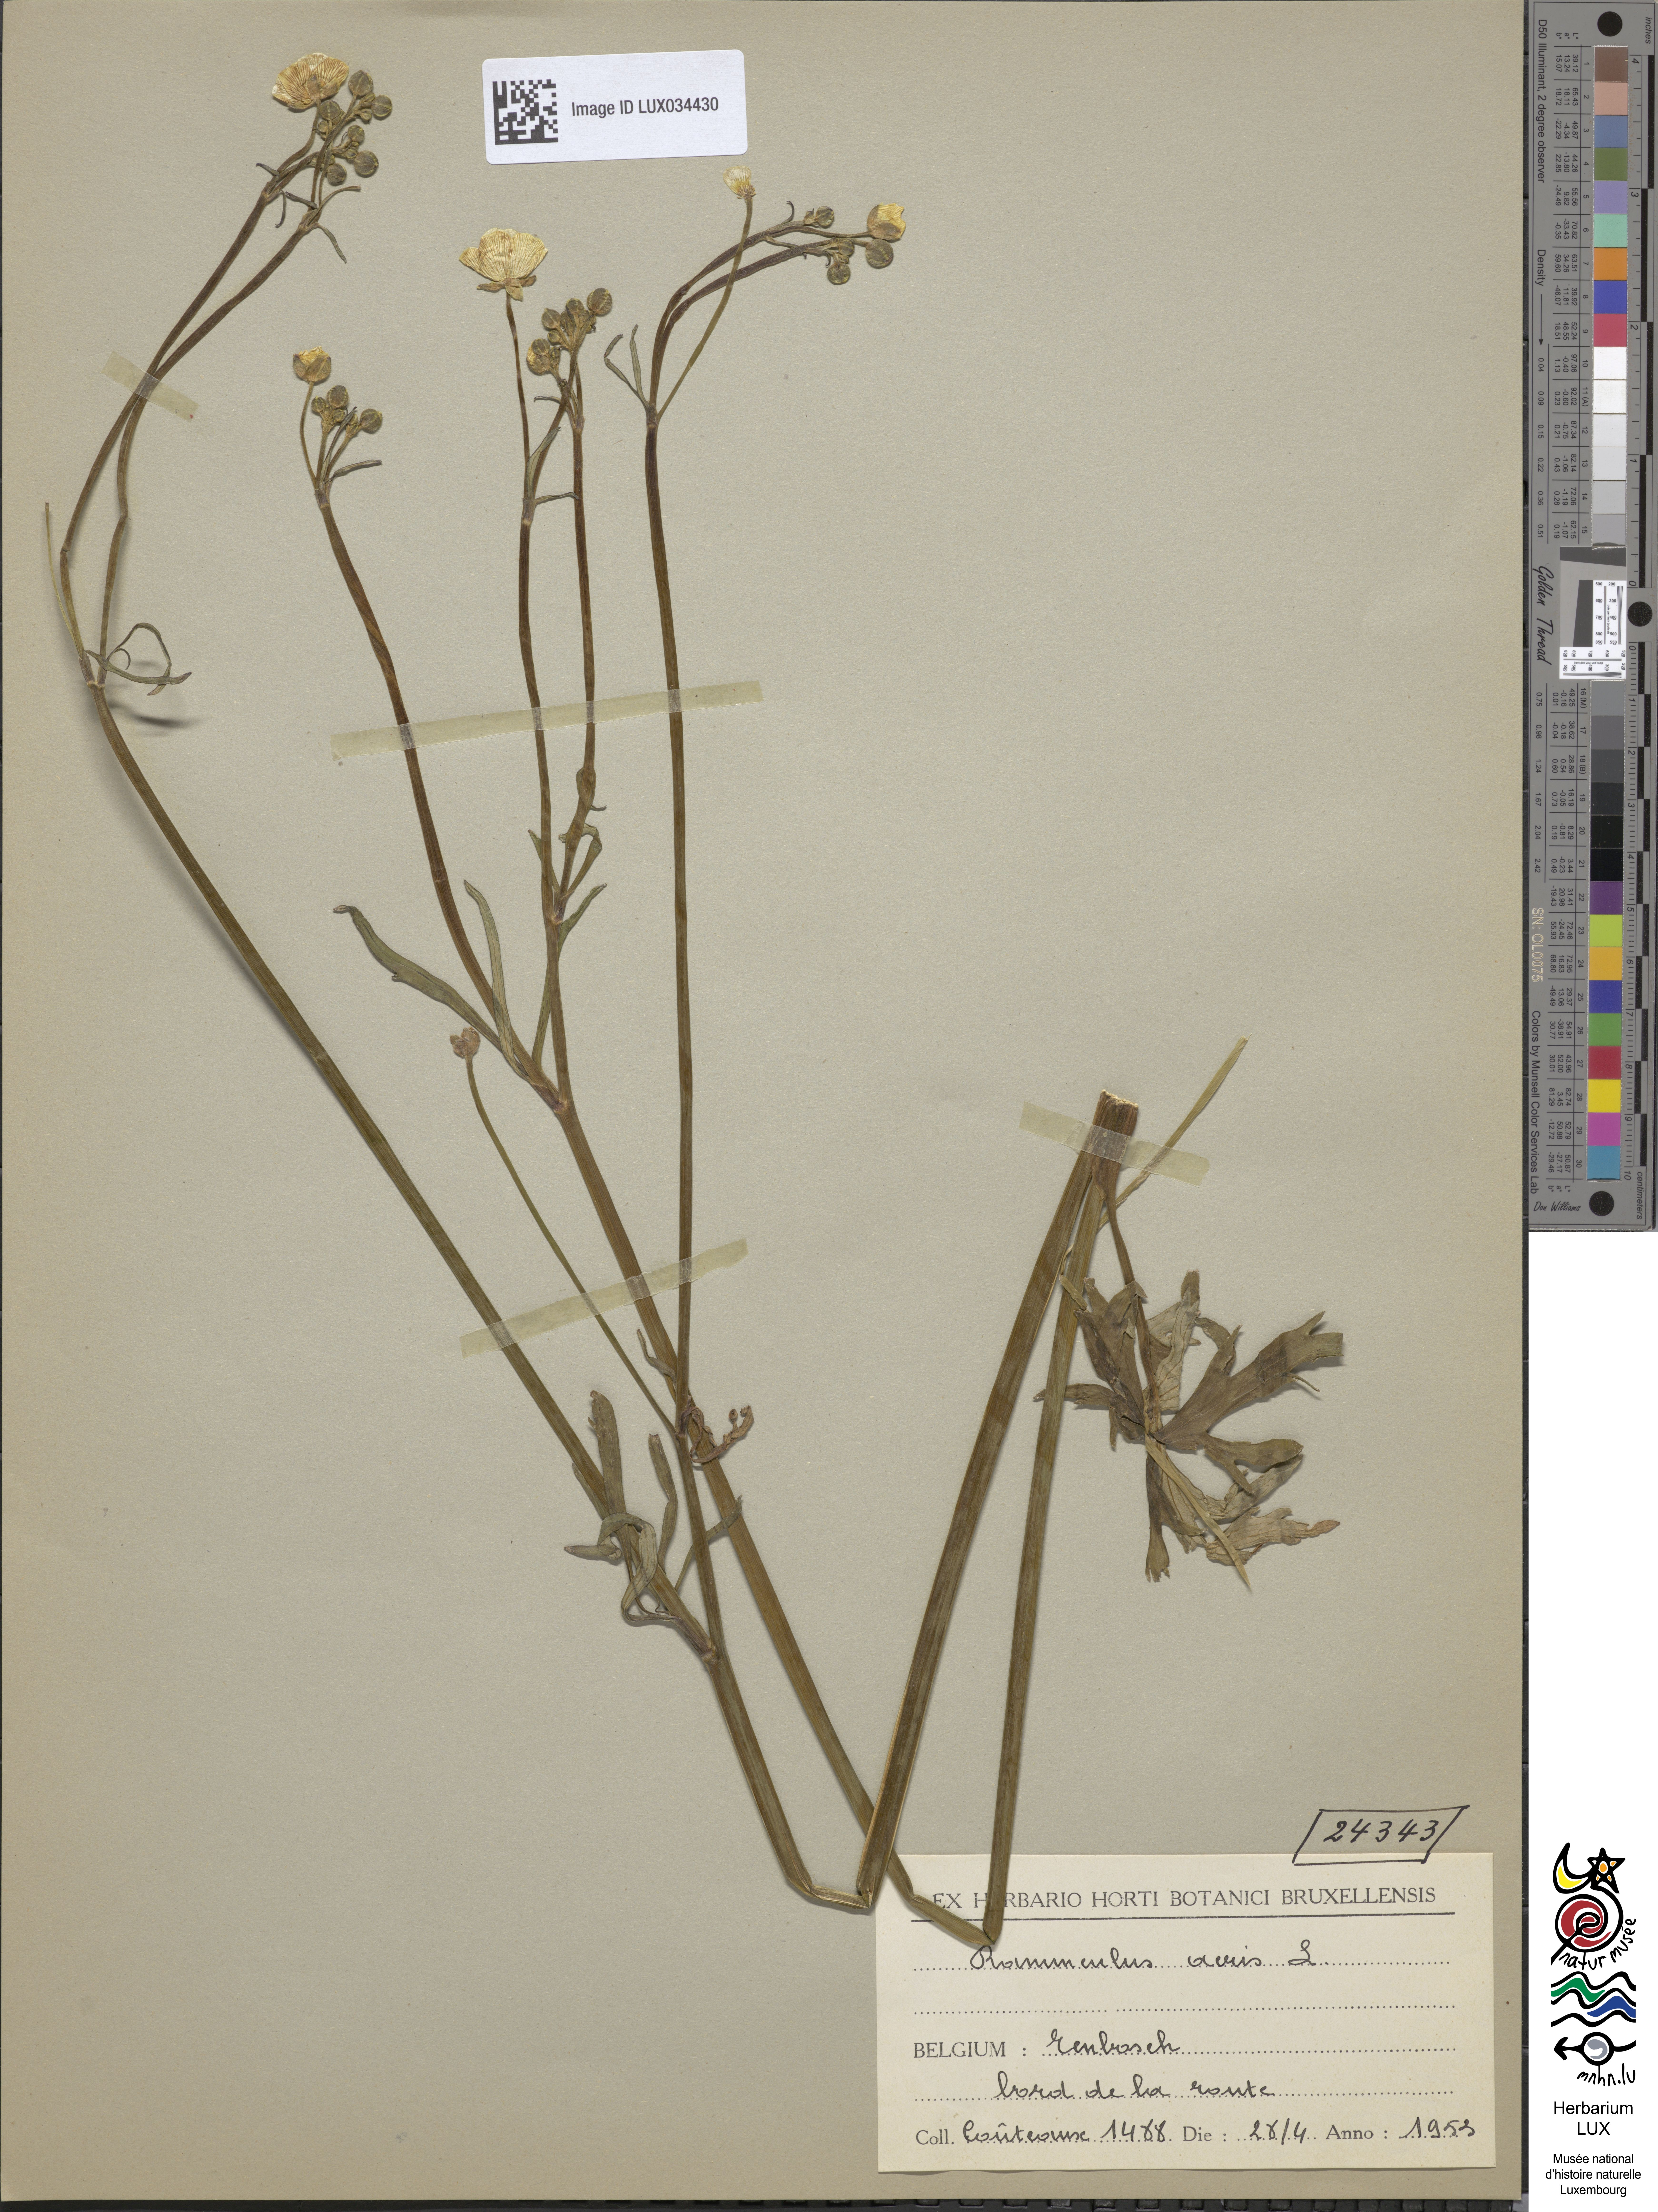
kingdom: Plantae
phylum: Tracheophyta
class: Magnoliopsida
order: Ranunculales
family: Ranunculaceae
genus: Ranunculus
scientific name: Ranunculus acris
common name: Meadow buttercup
